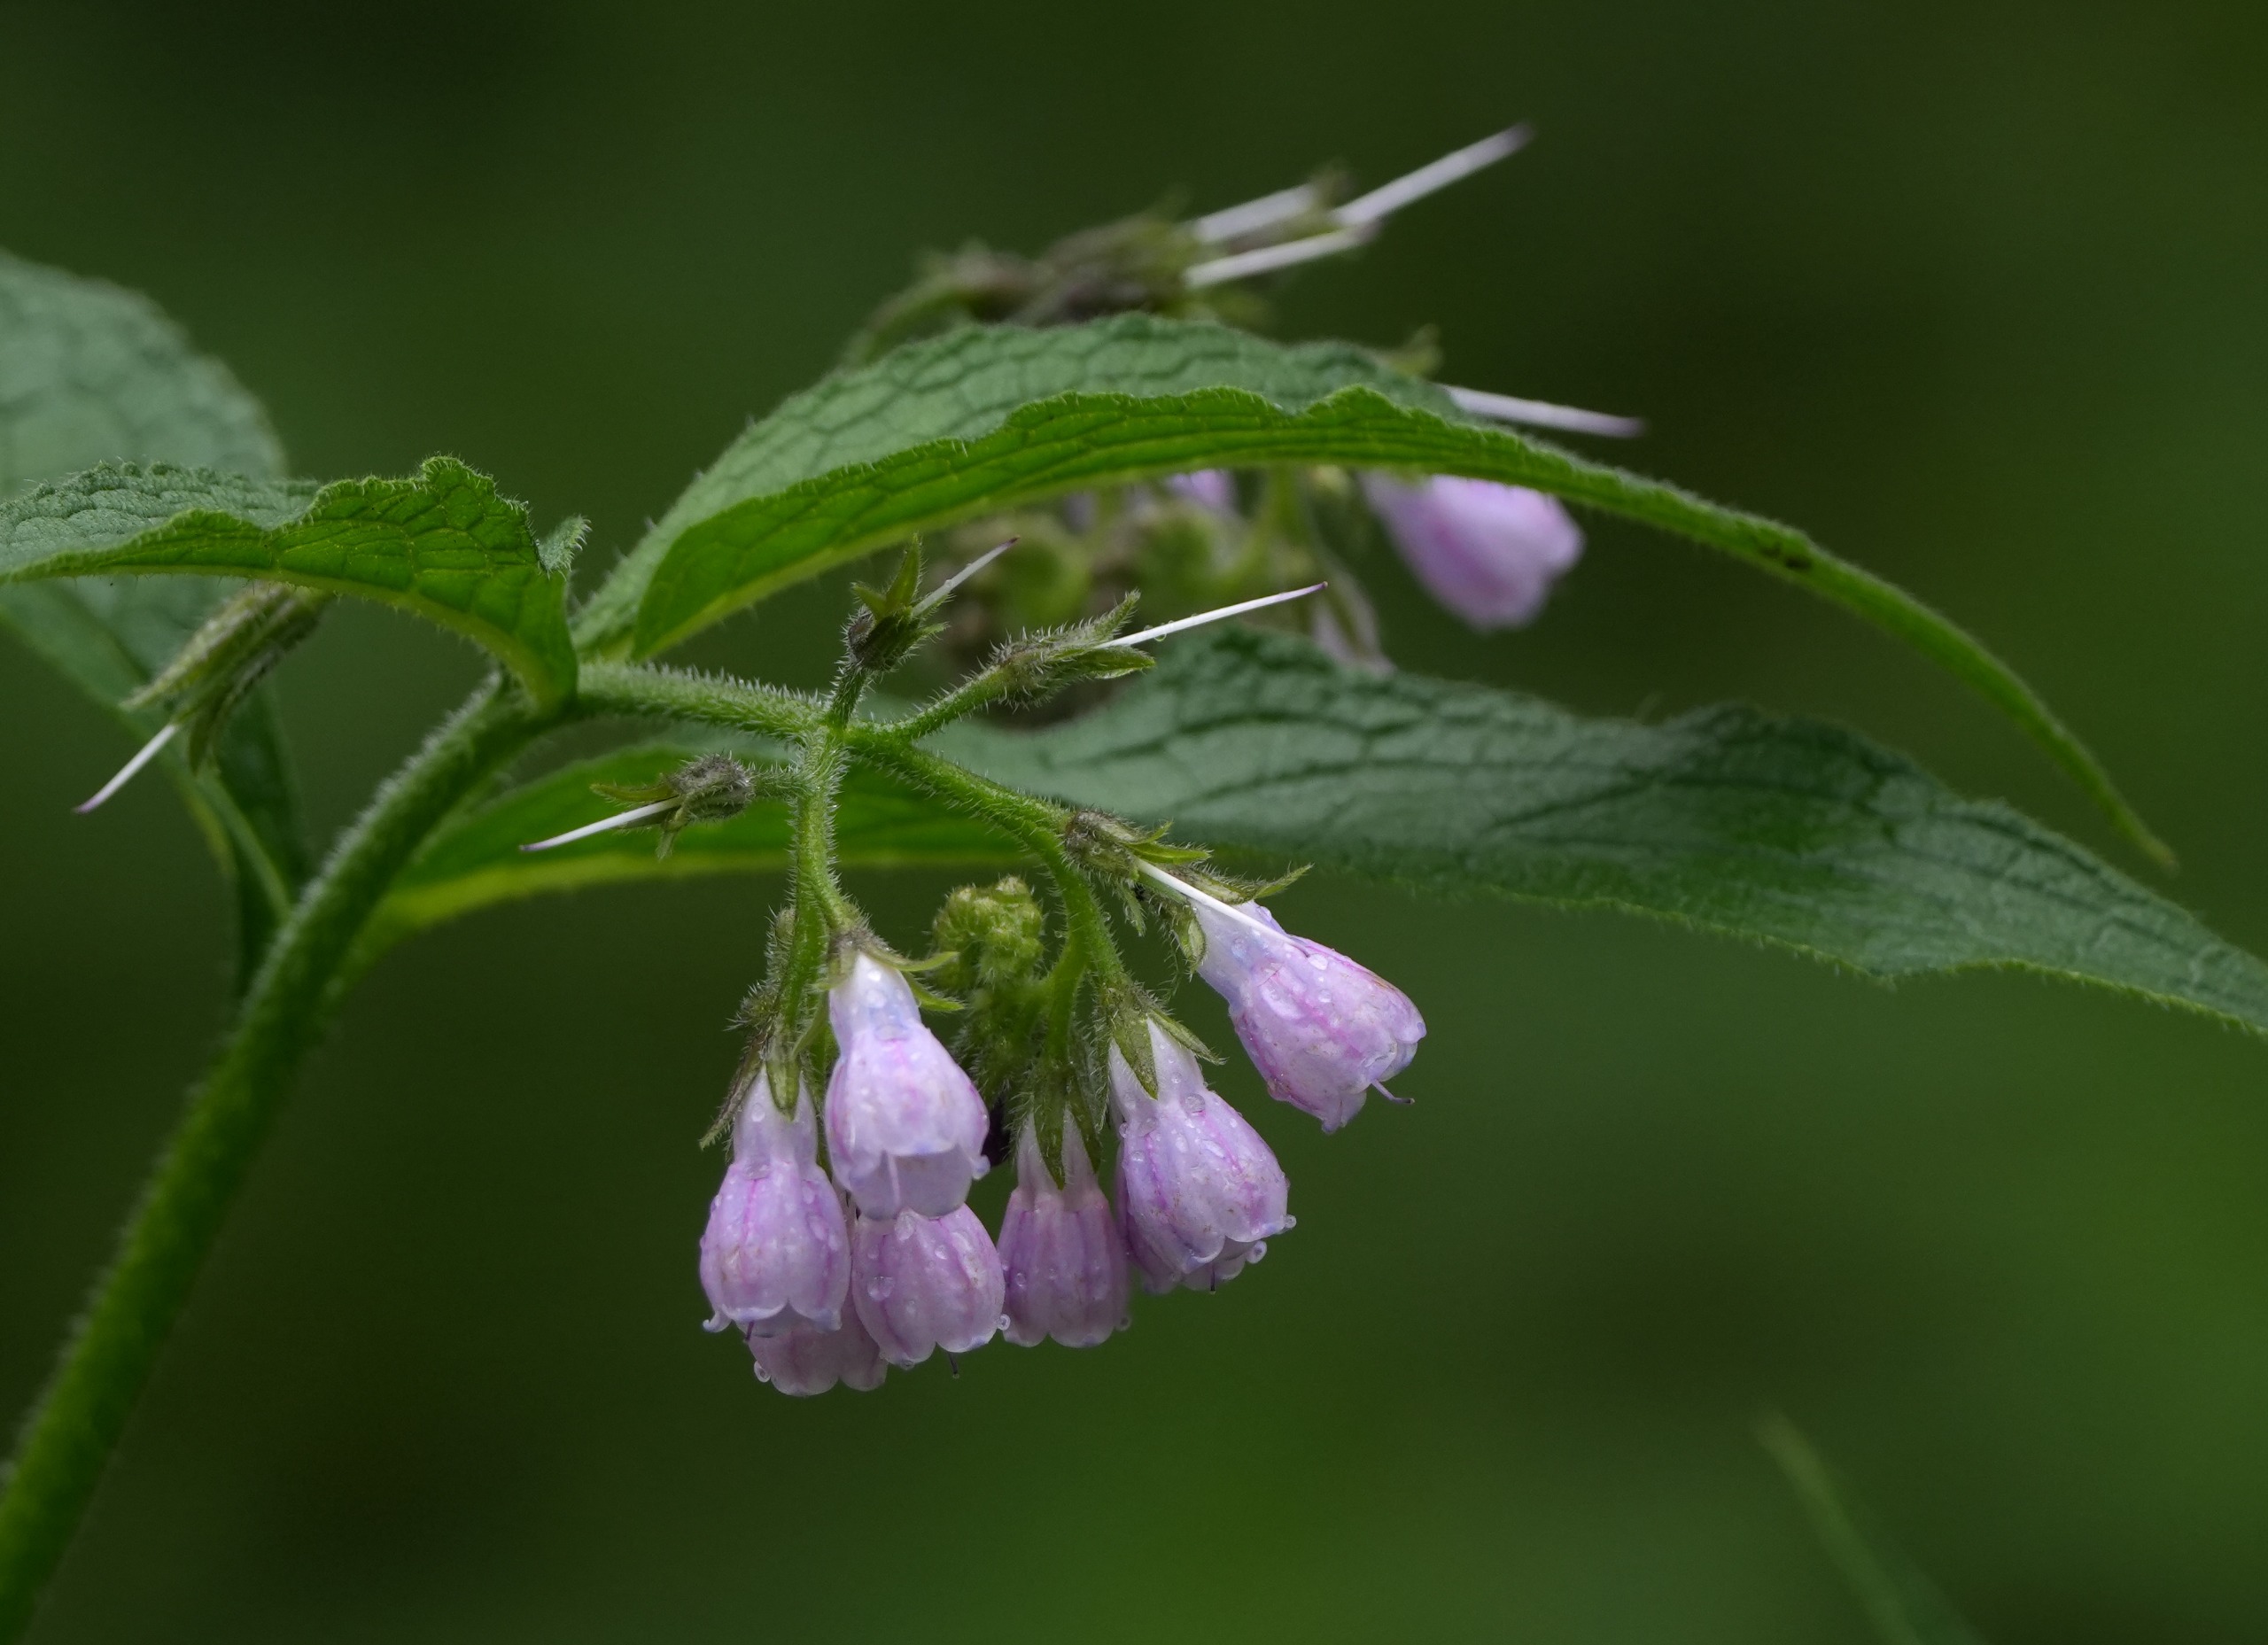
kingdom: Plantae
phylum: Tracheophyta
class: Magnoliopsida
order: Boraginales
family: Boraginaceae
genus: Symphytum
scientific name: Symphytum uplandicum
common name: Foder-kulsukker
